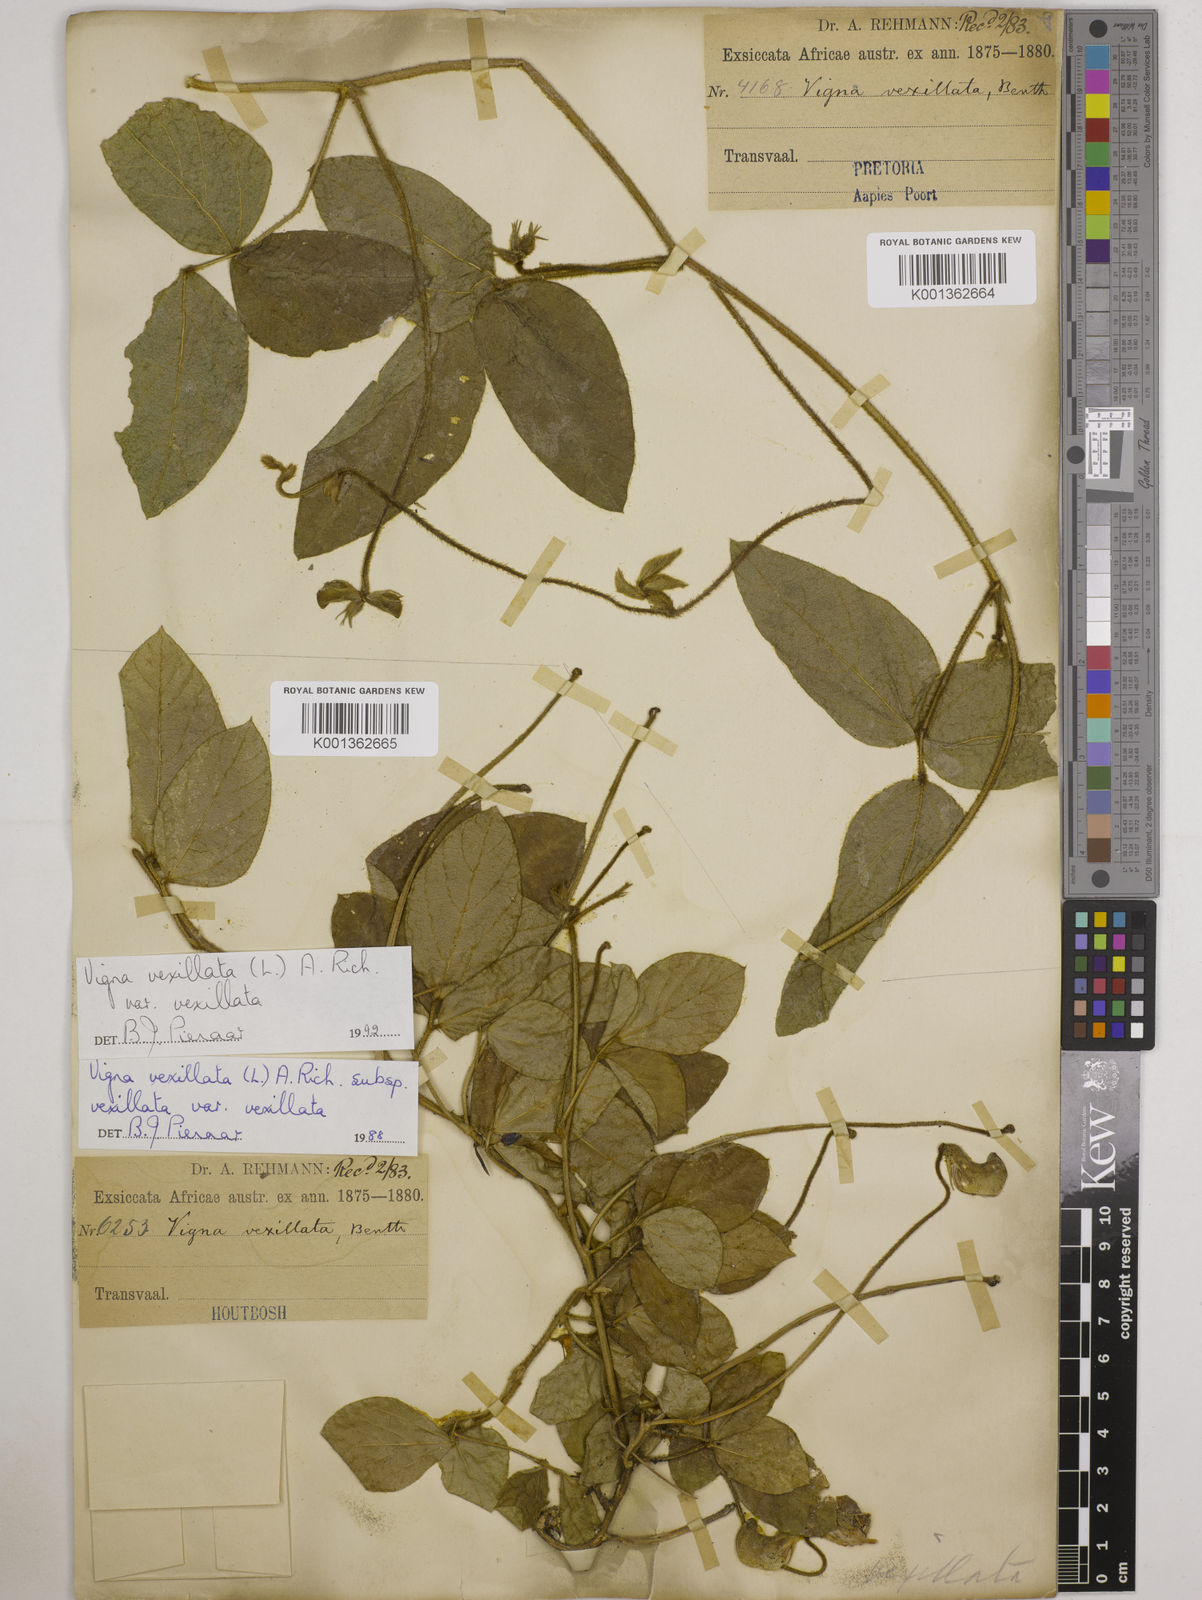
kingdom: Plantae
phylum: Tracheophyta
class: Magnoliopsida
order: Fabales
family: Fabaceae
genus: Vigna
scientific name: Vigna
